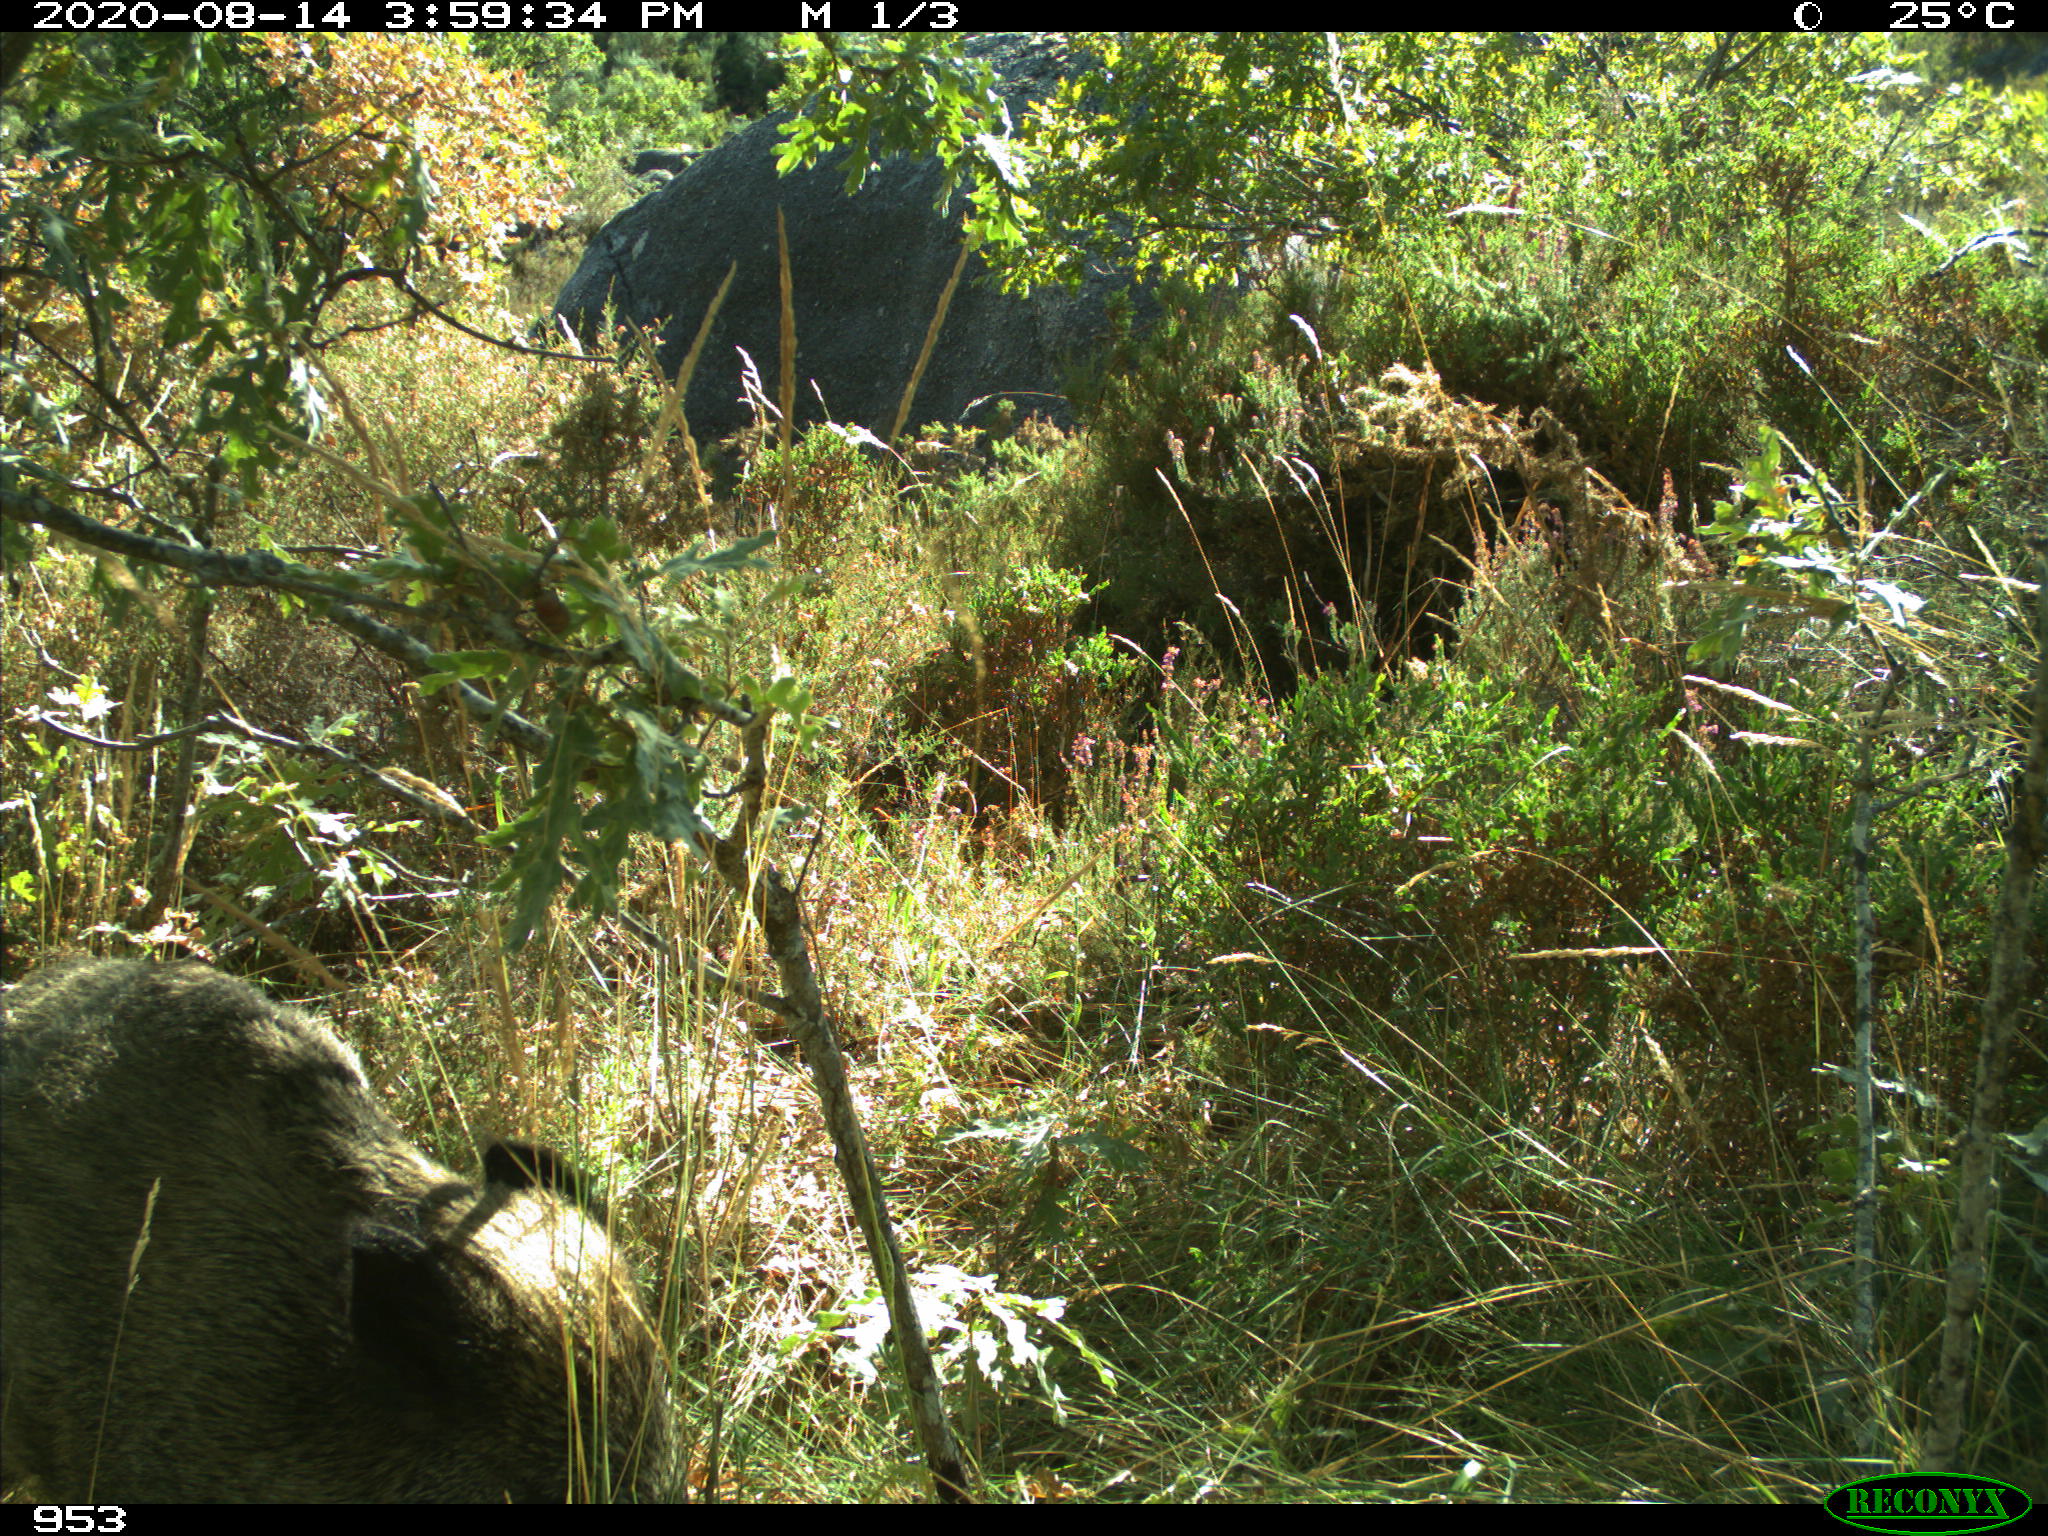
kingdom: Animalia
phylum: Chordata
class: Mammalia
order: Artiodactyla
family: Suidae
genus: Sus
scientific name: Sus scrofa
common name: Wild boar
